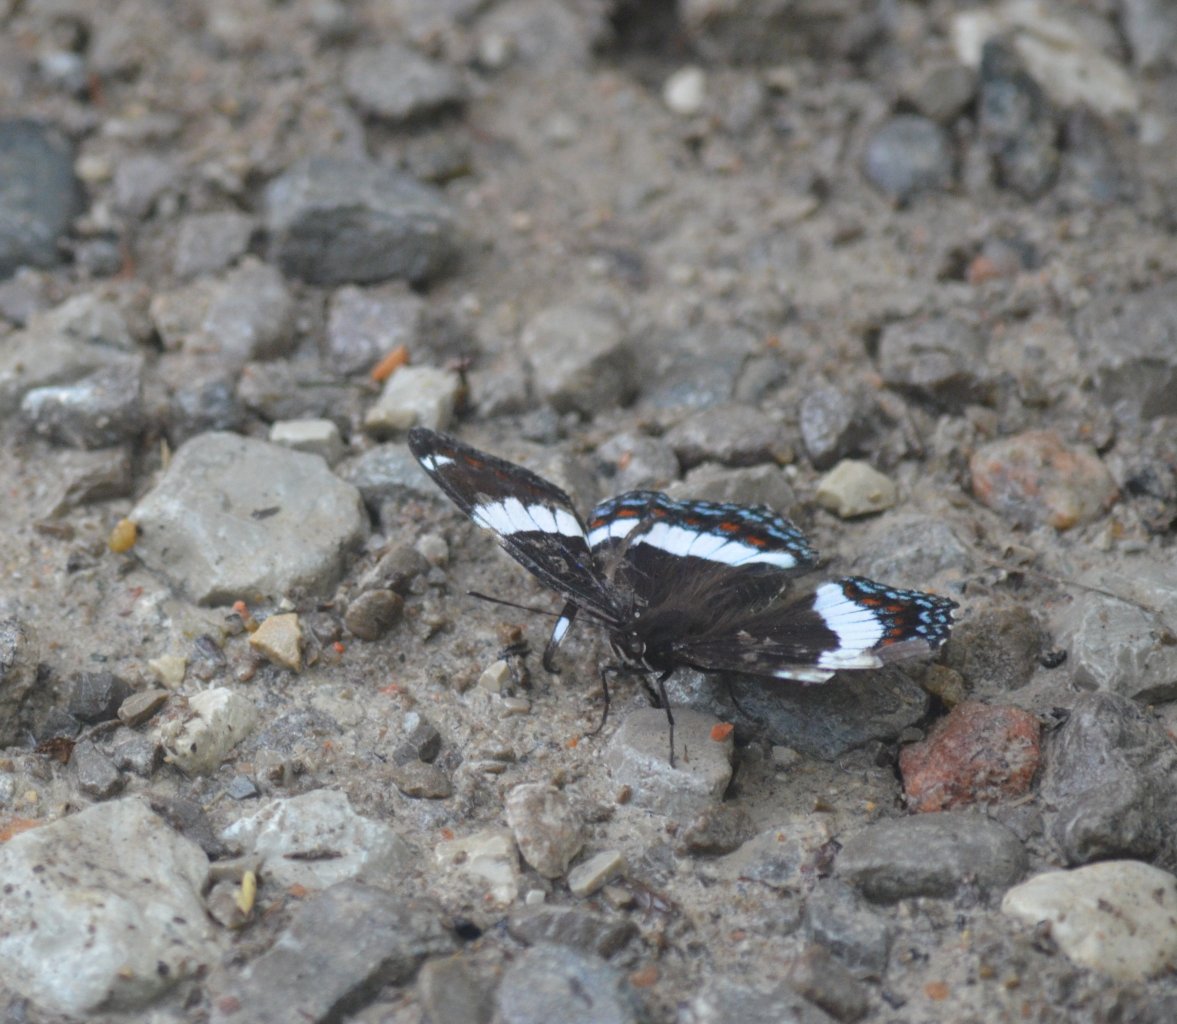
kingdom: Animalia
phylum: Arthropoda
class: Insecta
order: Lepidoptera
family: Nymphalidae
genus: Limenitis
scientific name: Limenitis arthemis
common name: Red-spotted Admiral
